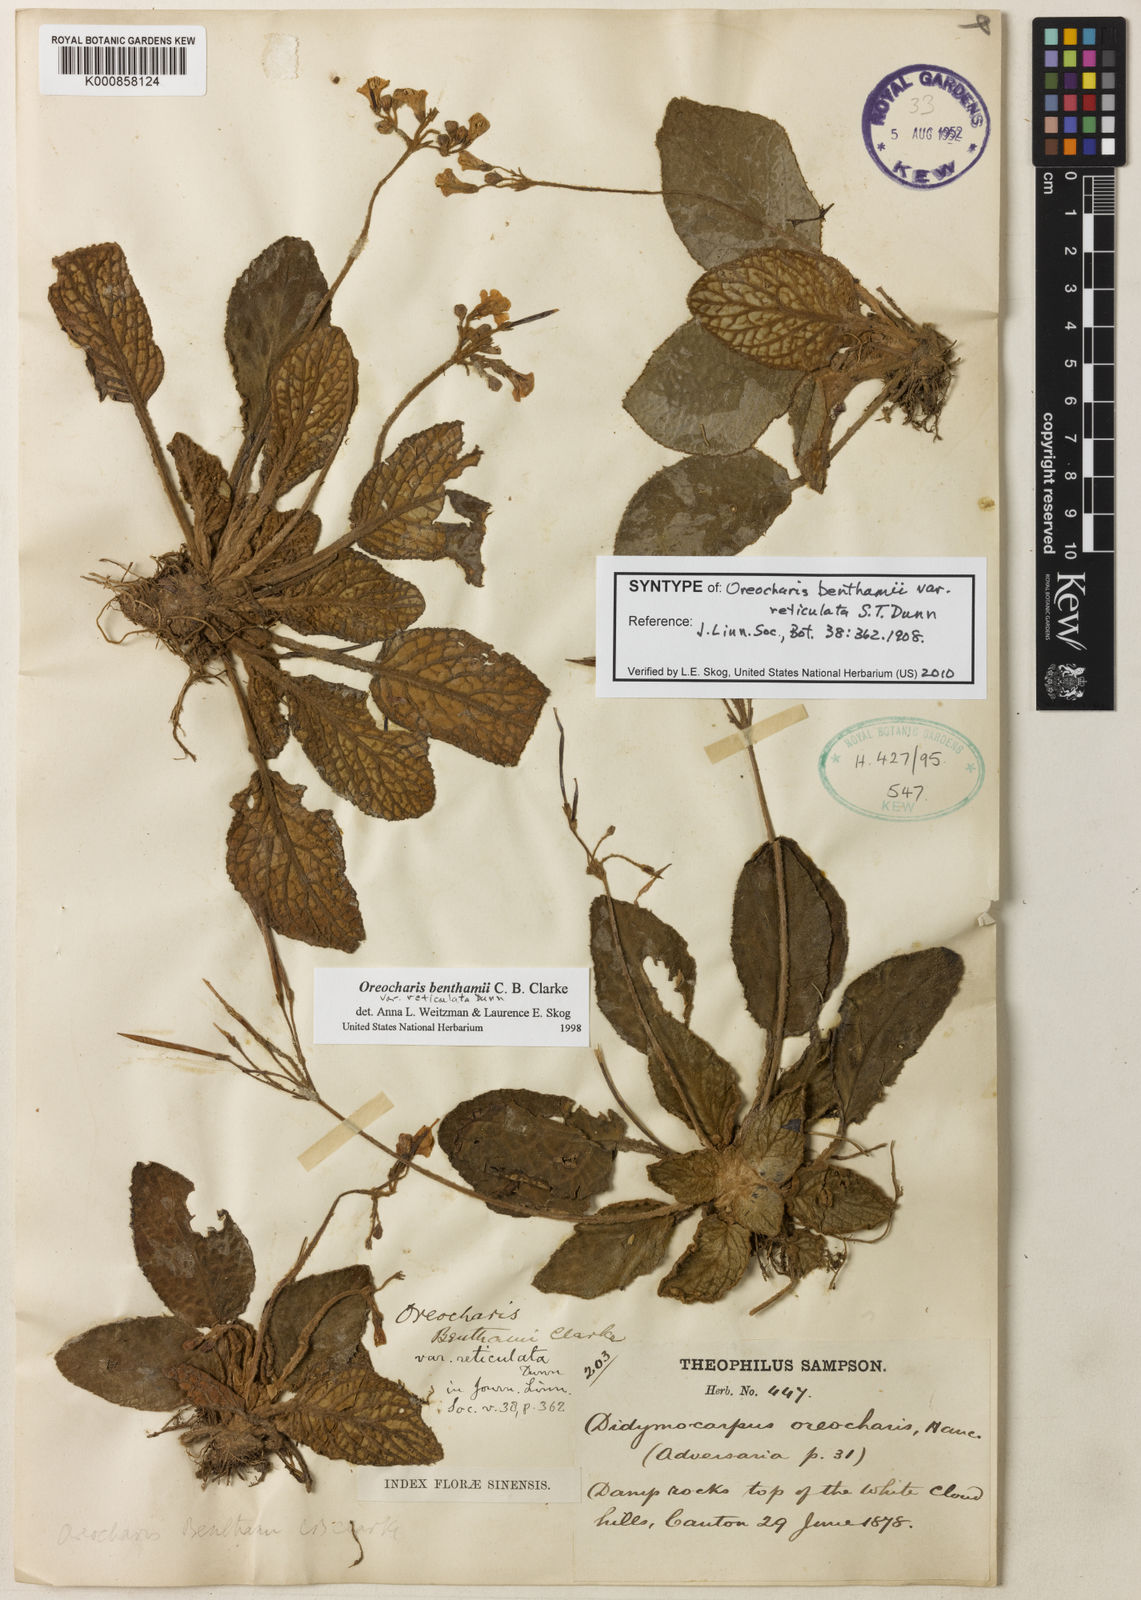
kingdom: Plantae
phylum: Tracheophyta
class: Magnoliopsida
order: Lamiales
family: Gesneriaceae
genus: Oreocharis
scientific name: Oreocharis benthamii
